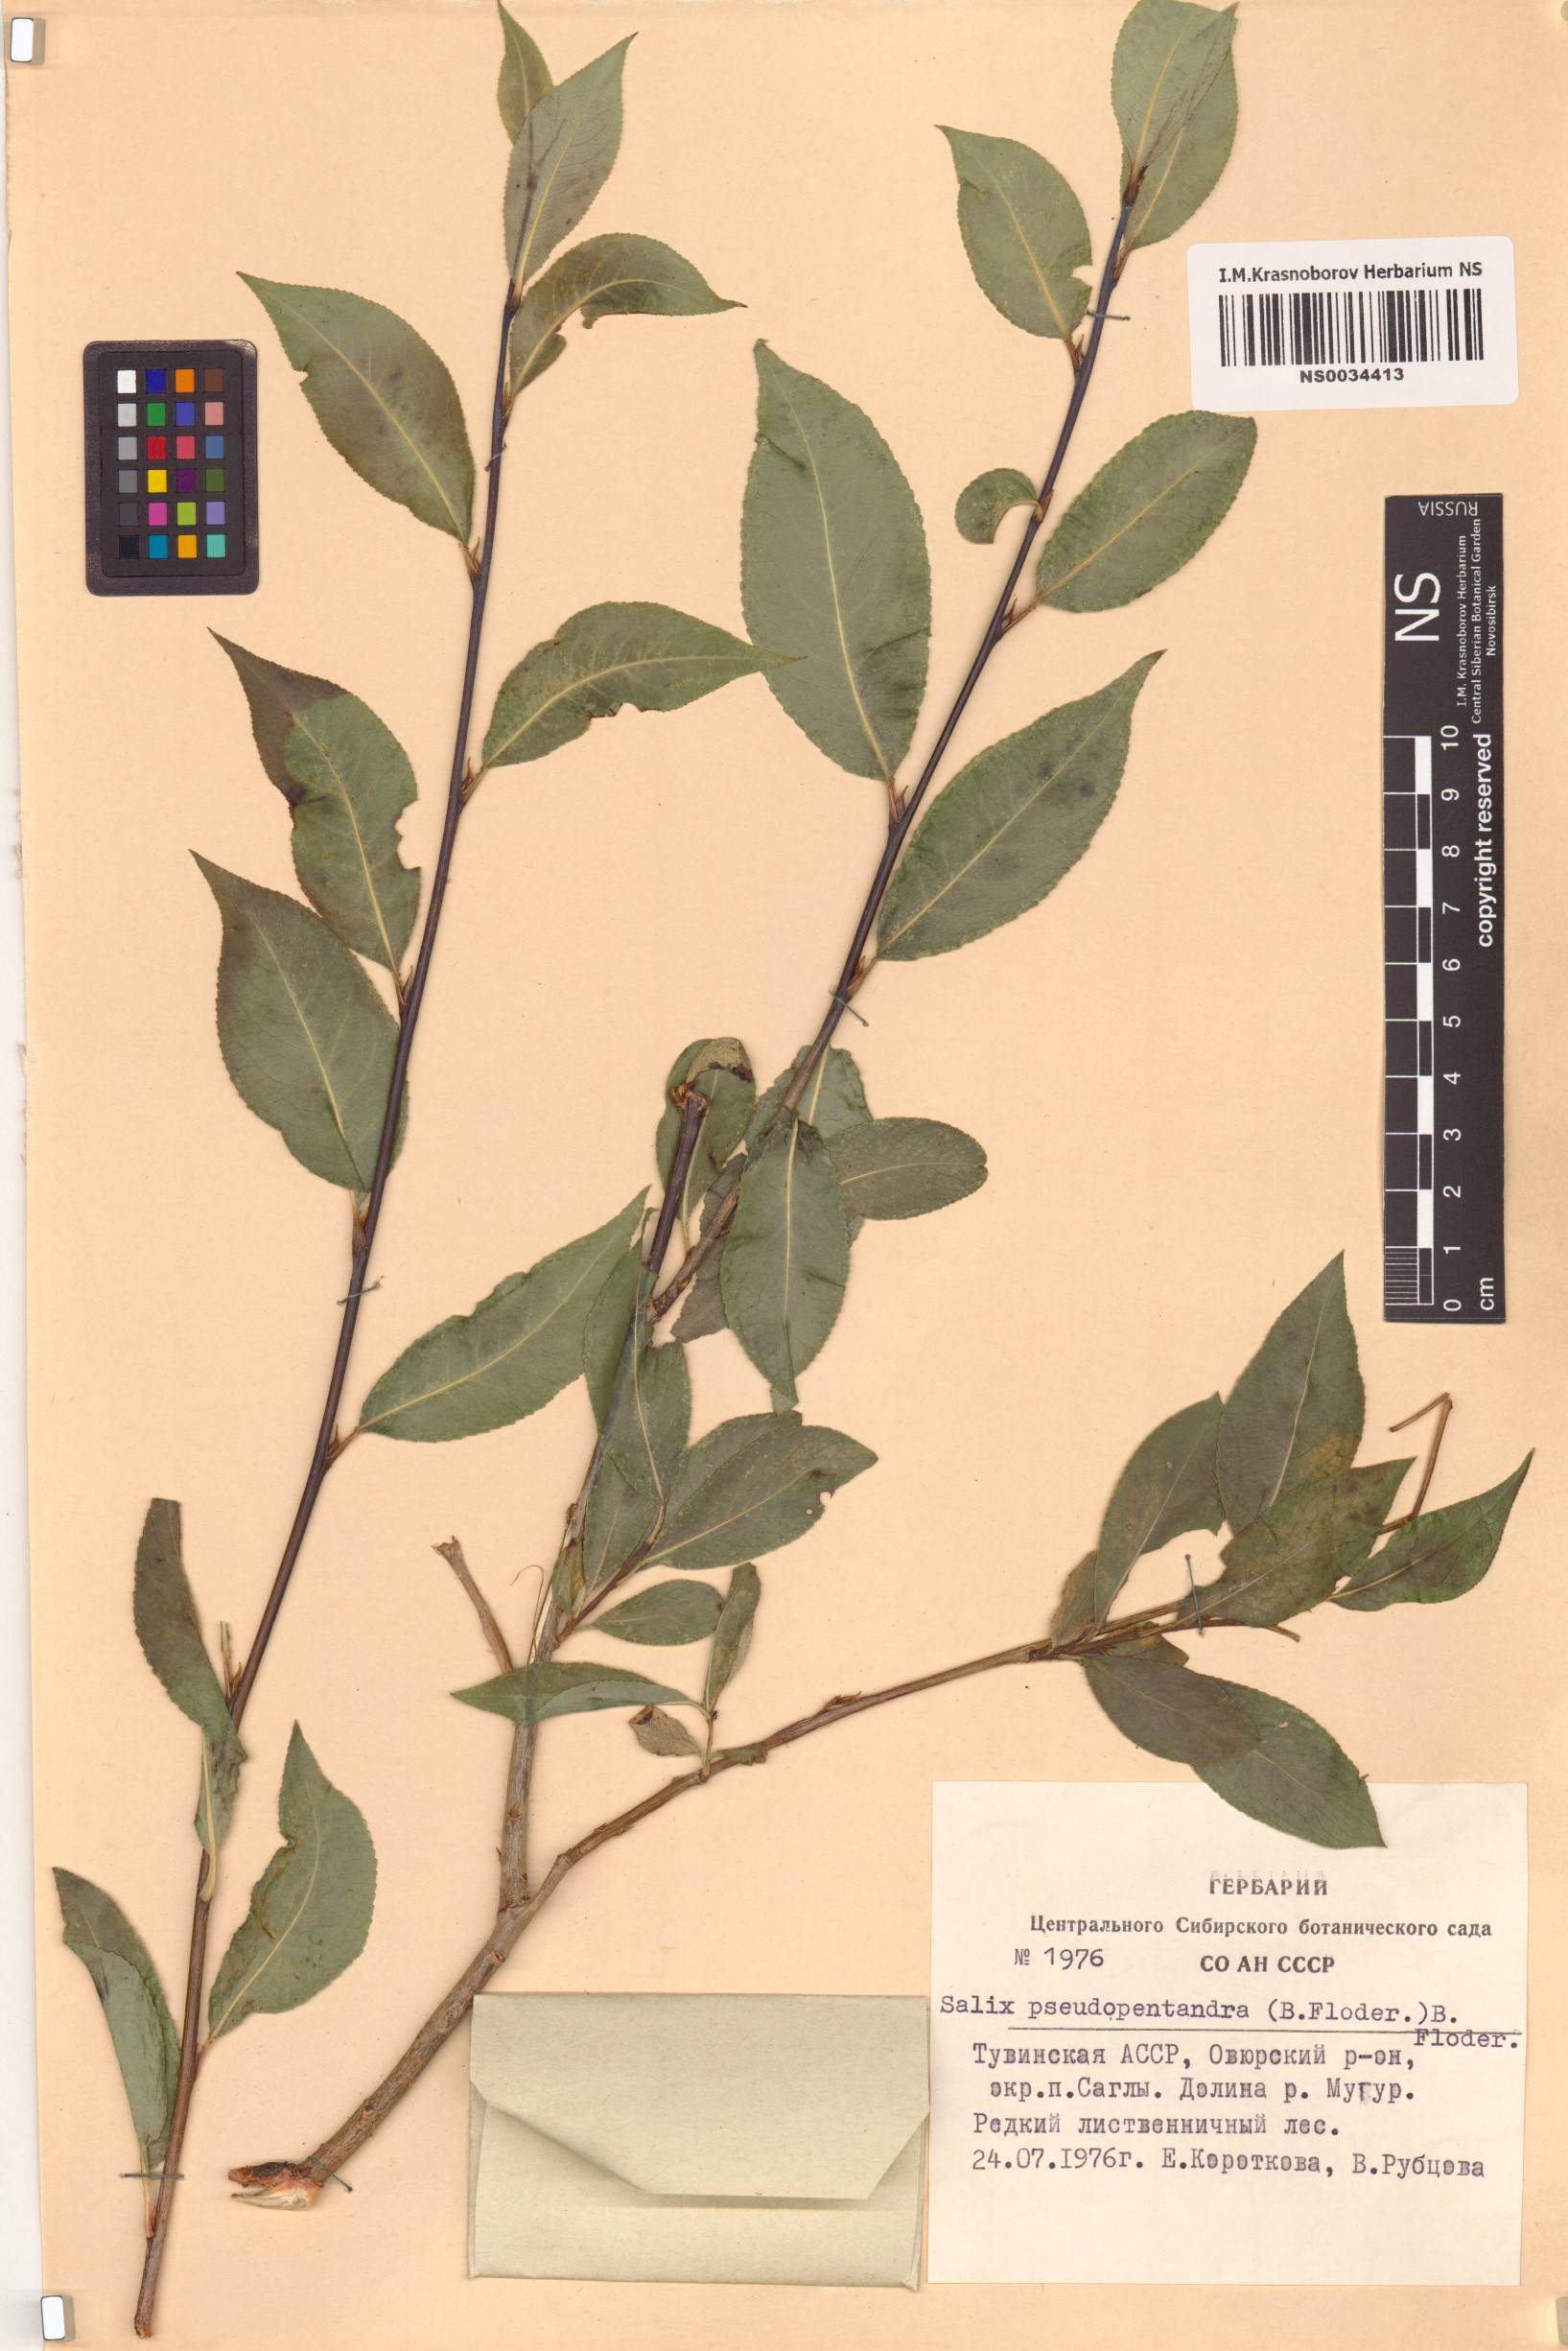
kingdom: Plantae
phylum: Tracheophyta
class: Magnoliopsida
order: Malpighiales
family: Salicaceae
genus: Salix
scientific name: Salix pseudopentandra
